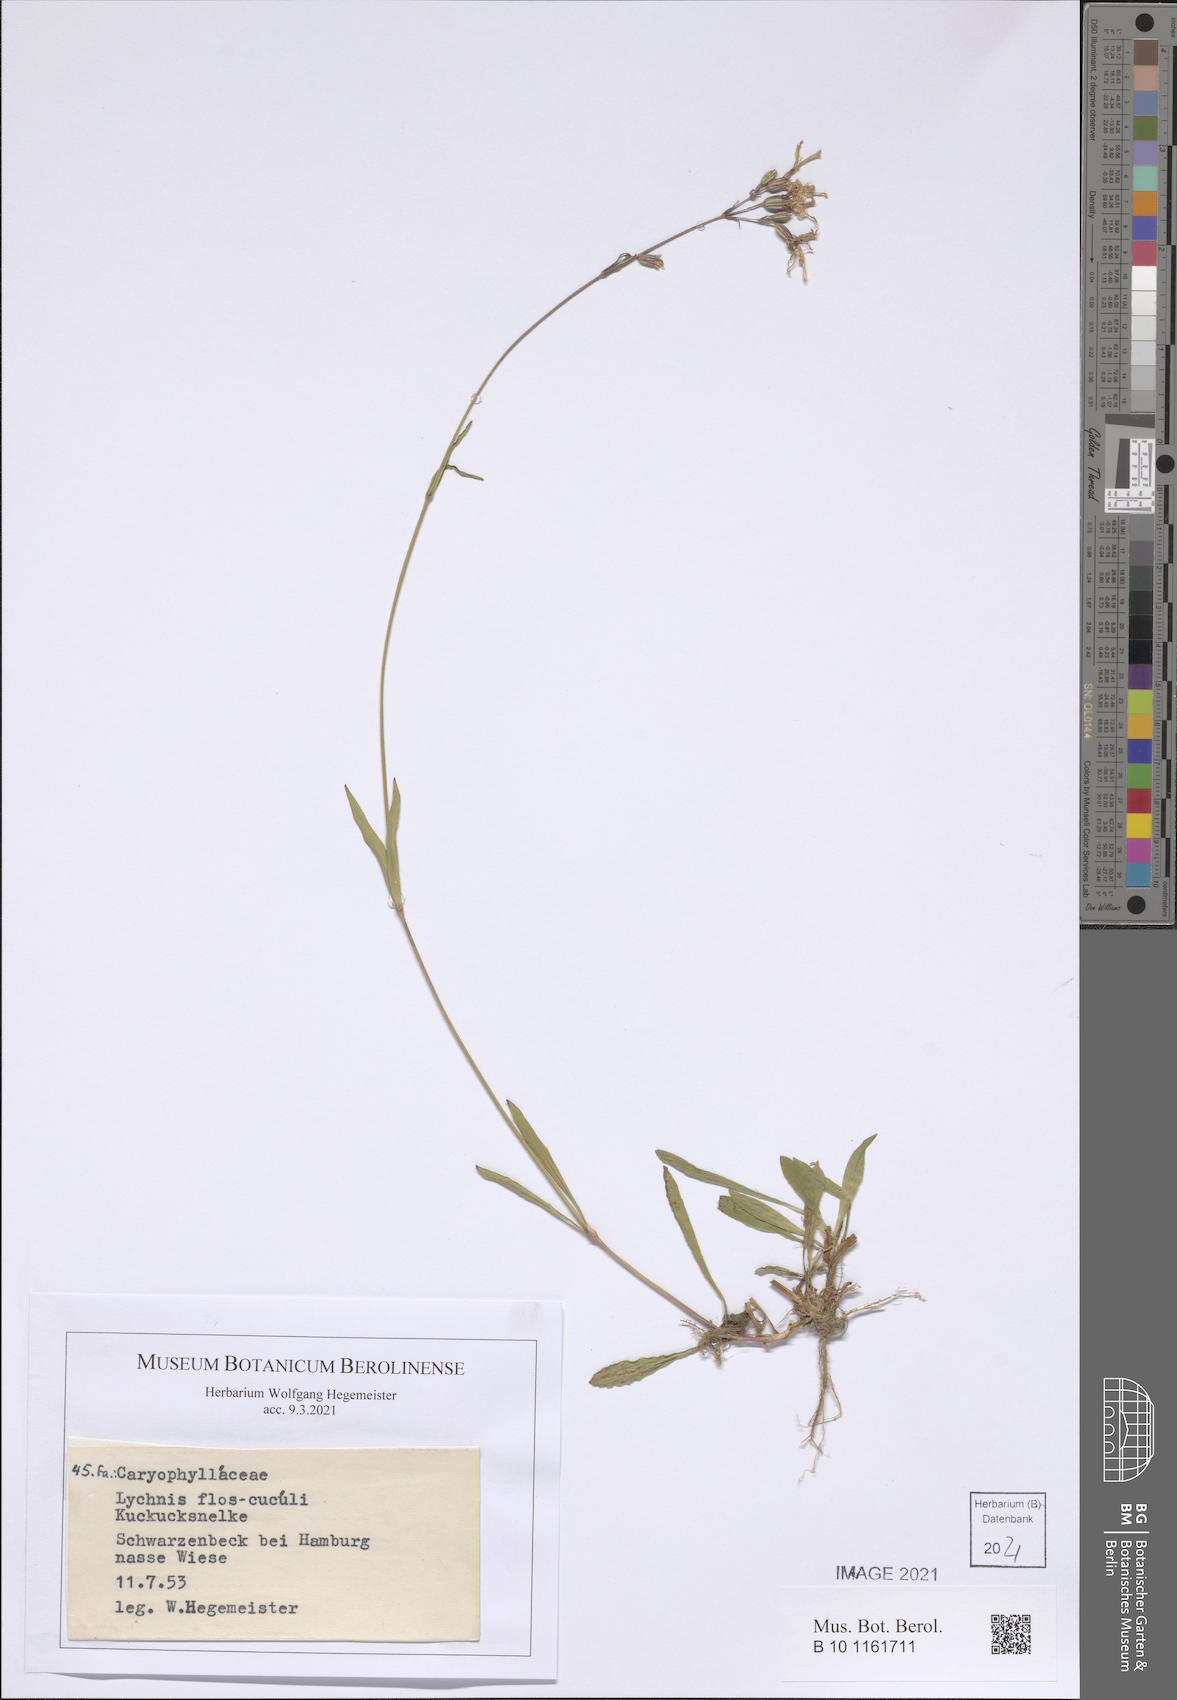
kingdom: Plantae
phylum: Tracheophyta
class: Magnoliopsida
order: Caryophyllales
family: Caryophyllaceae
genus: Silene
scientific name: Silene flos-cuculi
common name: Ragged-robin
